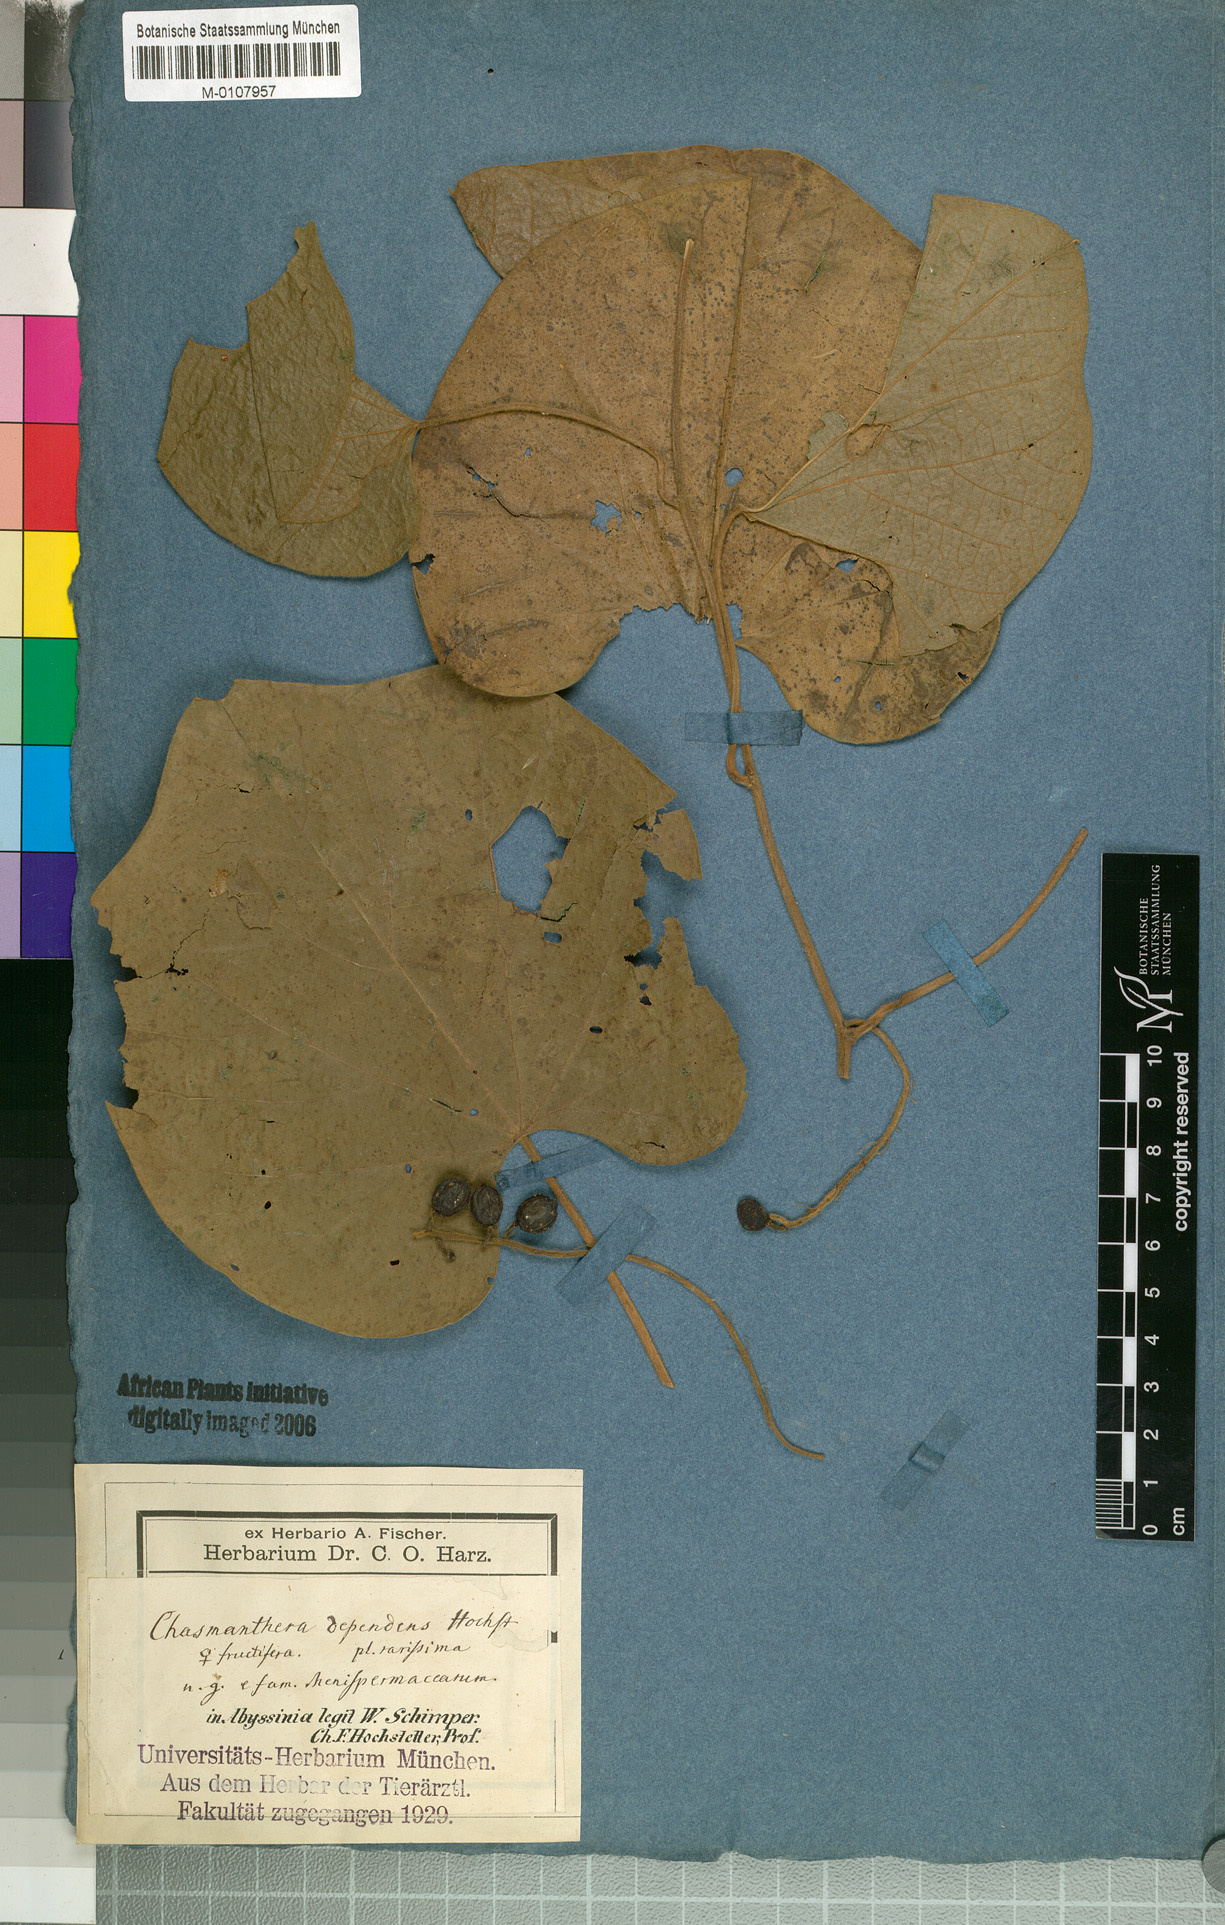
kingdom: Plantae
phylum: Tracheophyta
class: Magnoliopsida
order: Ranunculales
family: Menispermaceae
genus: Chasmanthera
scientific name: Chasmanthera dependens
